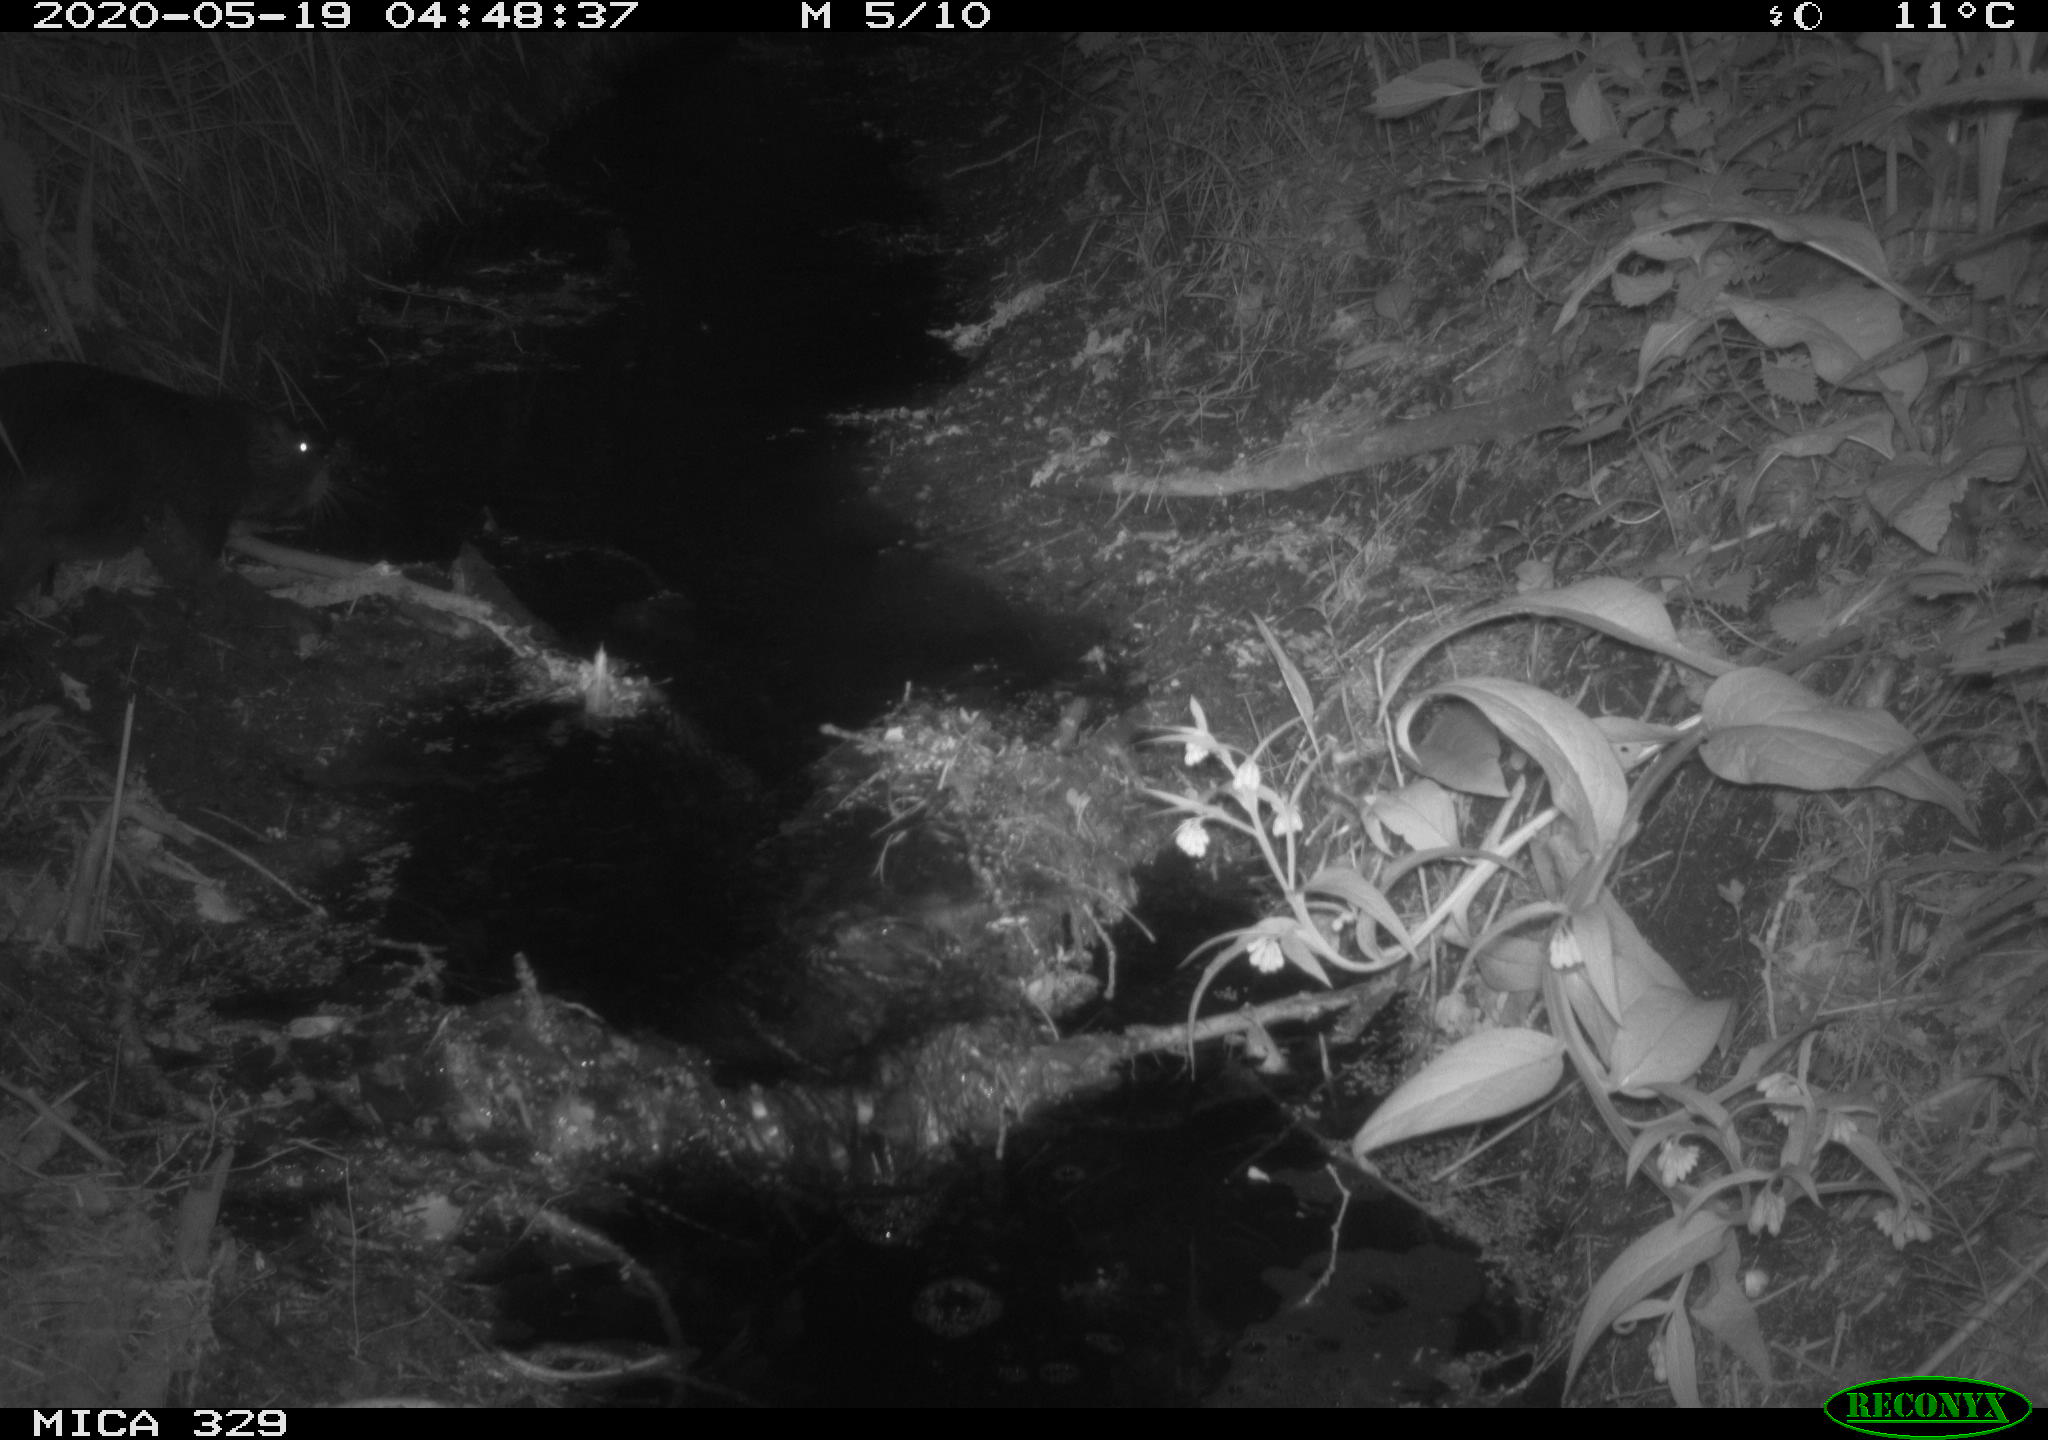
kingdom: Animalia
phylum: Chordata
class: Mammalia
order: Rodentia
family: Myocastoridae
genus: Myocastor
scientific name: Myocastor coypus
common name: Coypu
